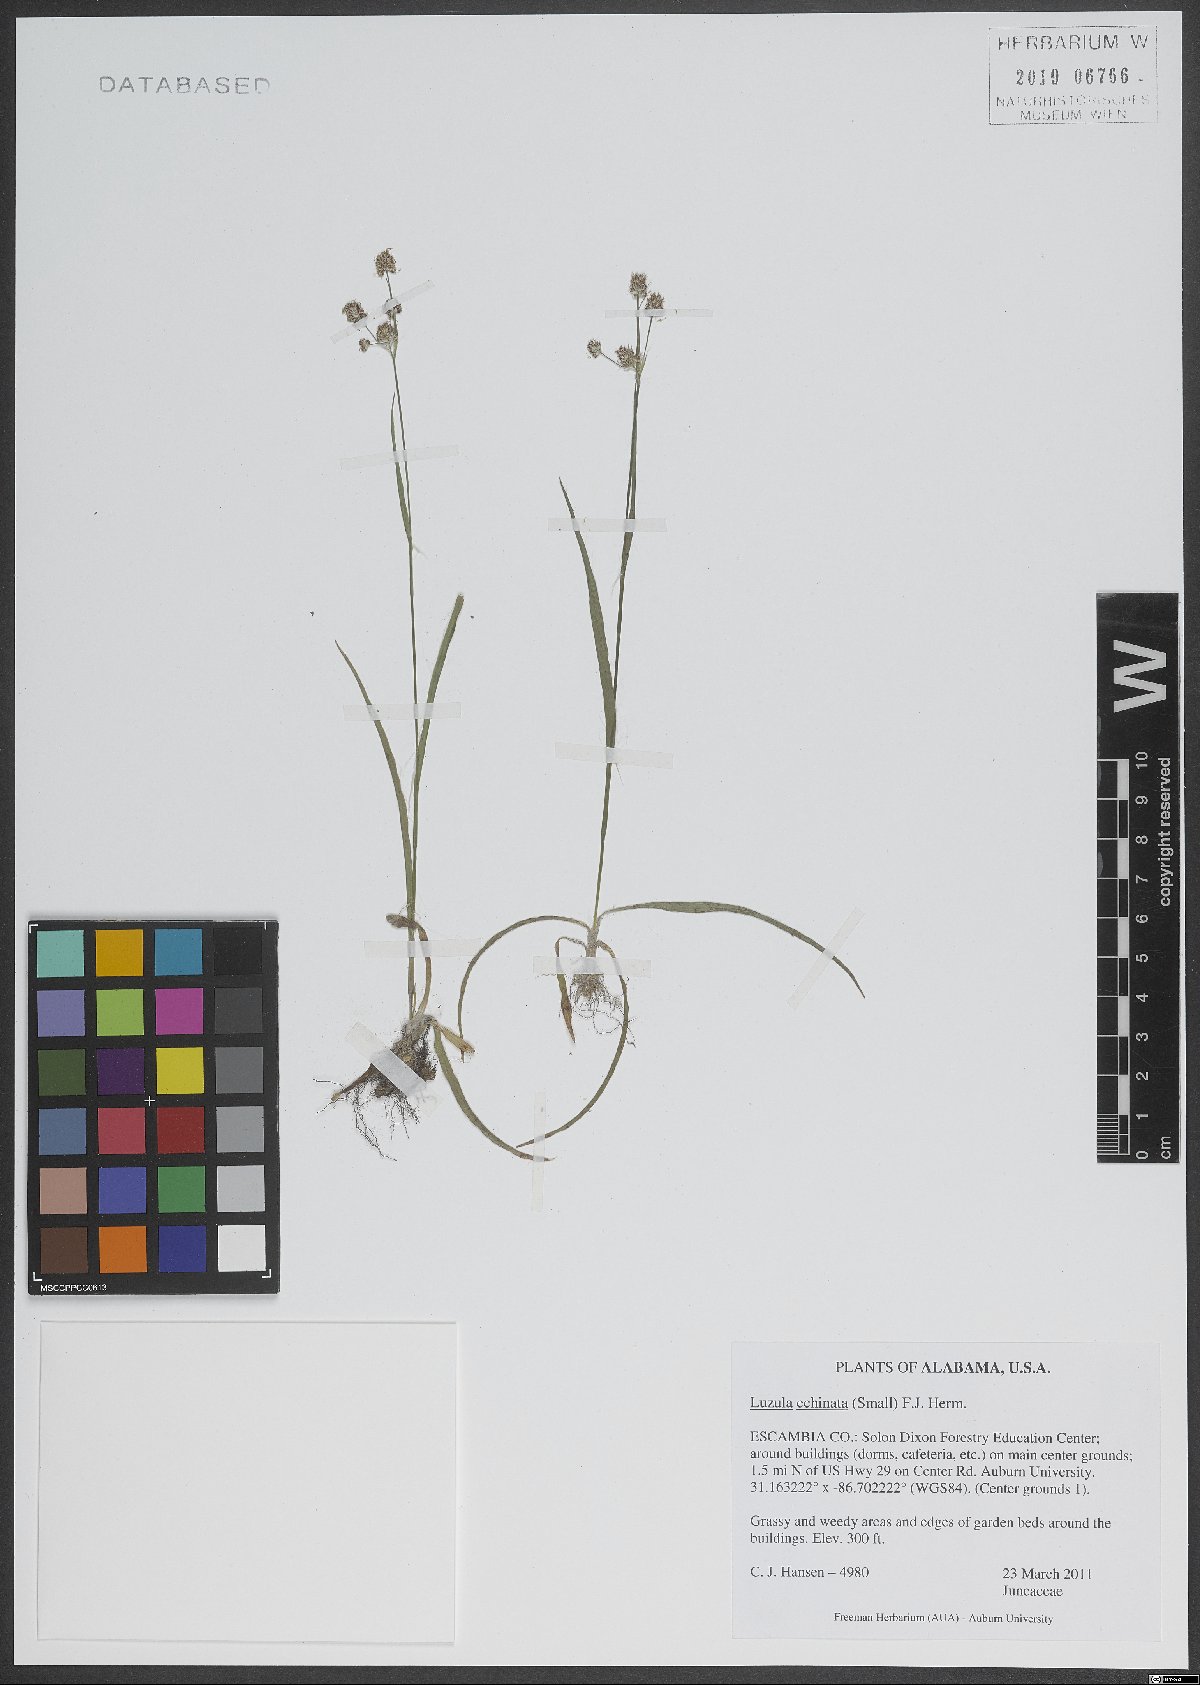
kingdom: Plantae
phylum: Tracheophyta
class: Liliopsida
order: Poales
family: Juncaceae
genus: Luzula
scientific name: Luzula echinata
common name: Hedgehog woodrush
